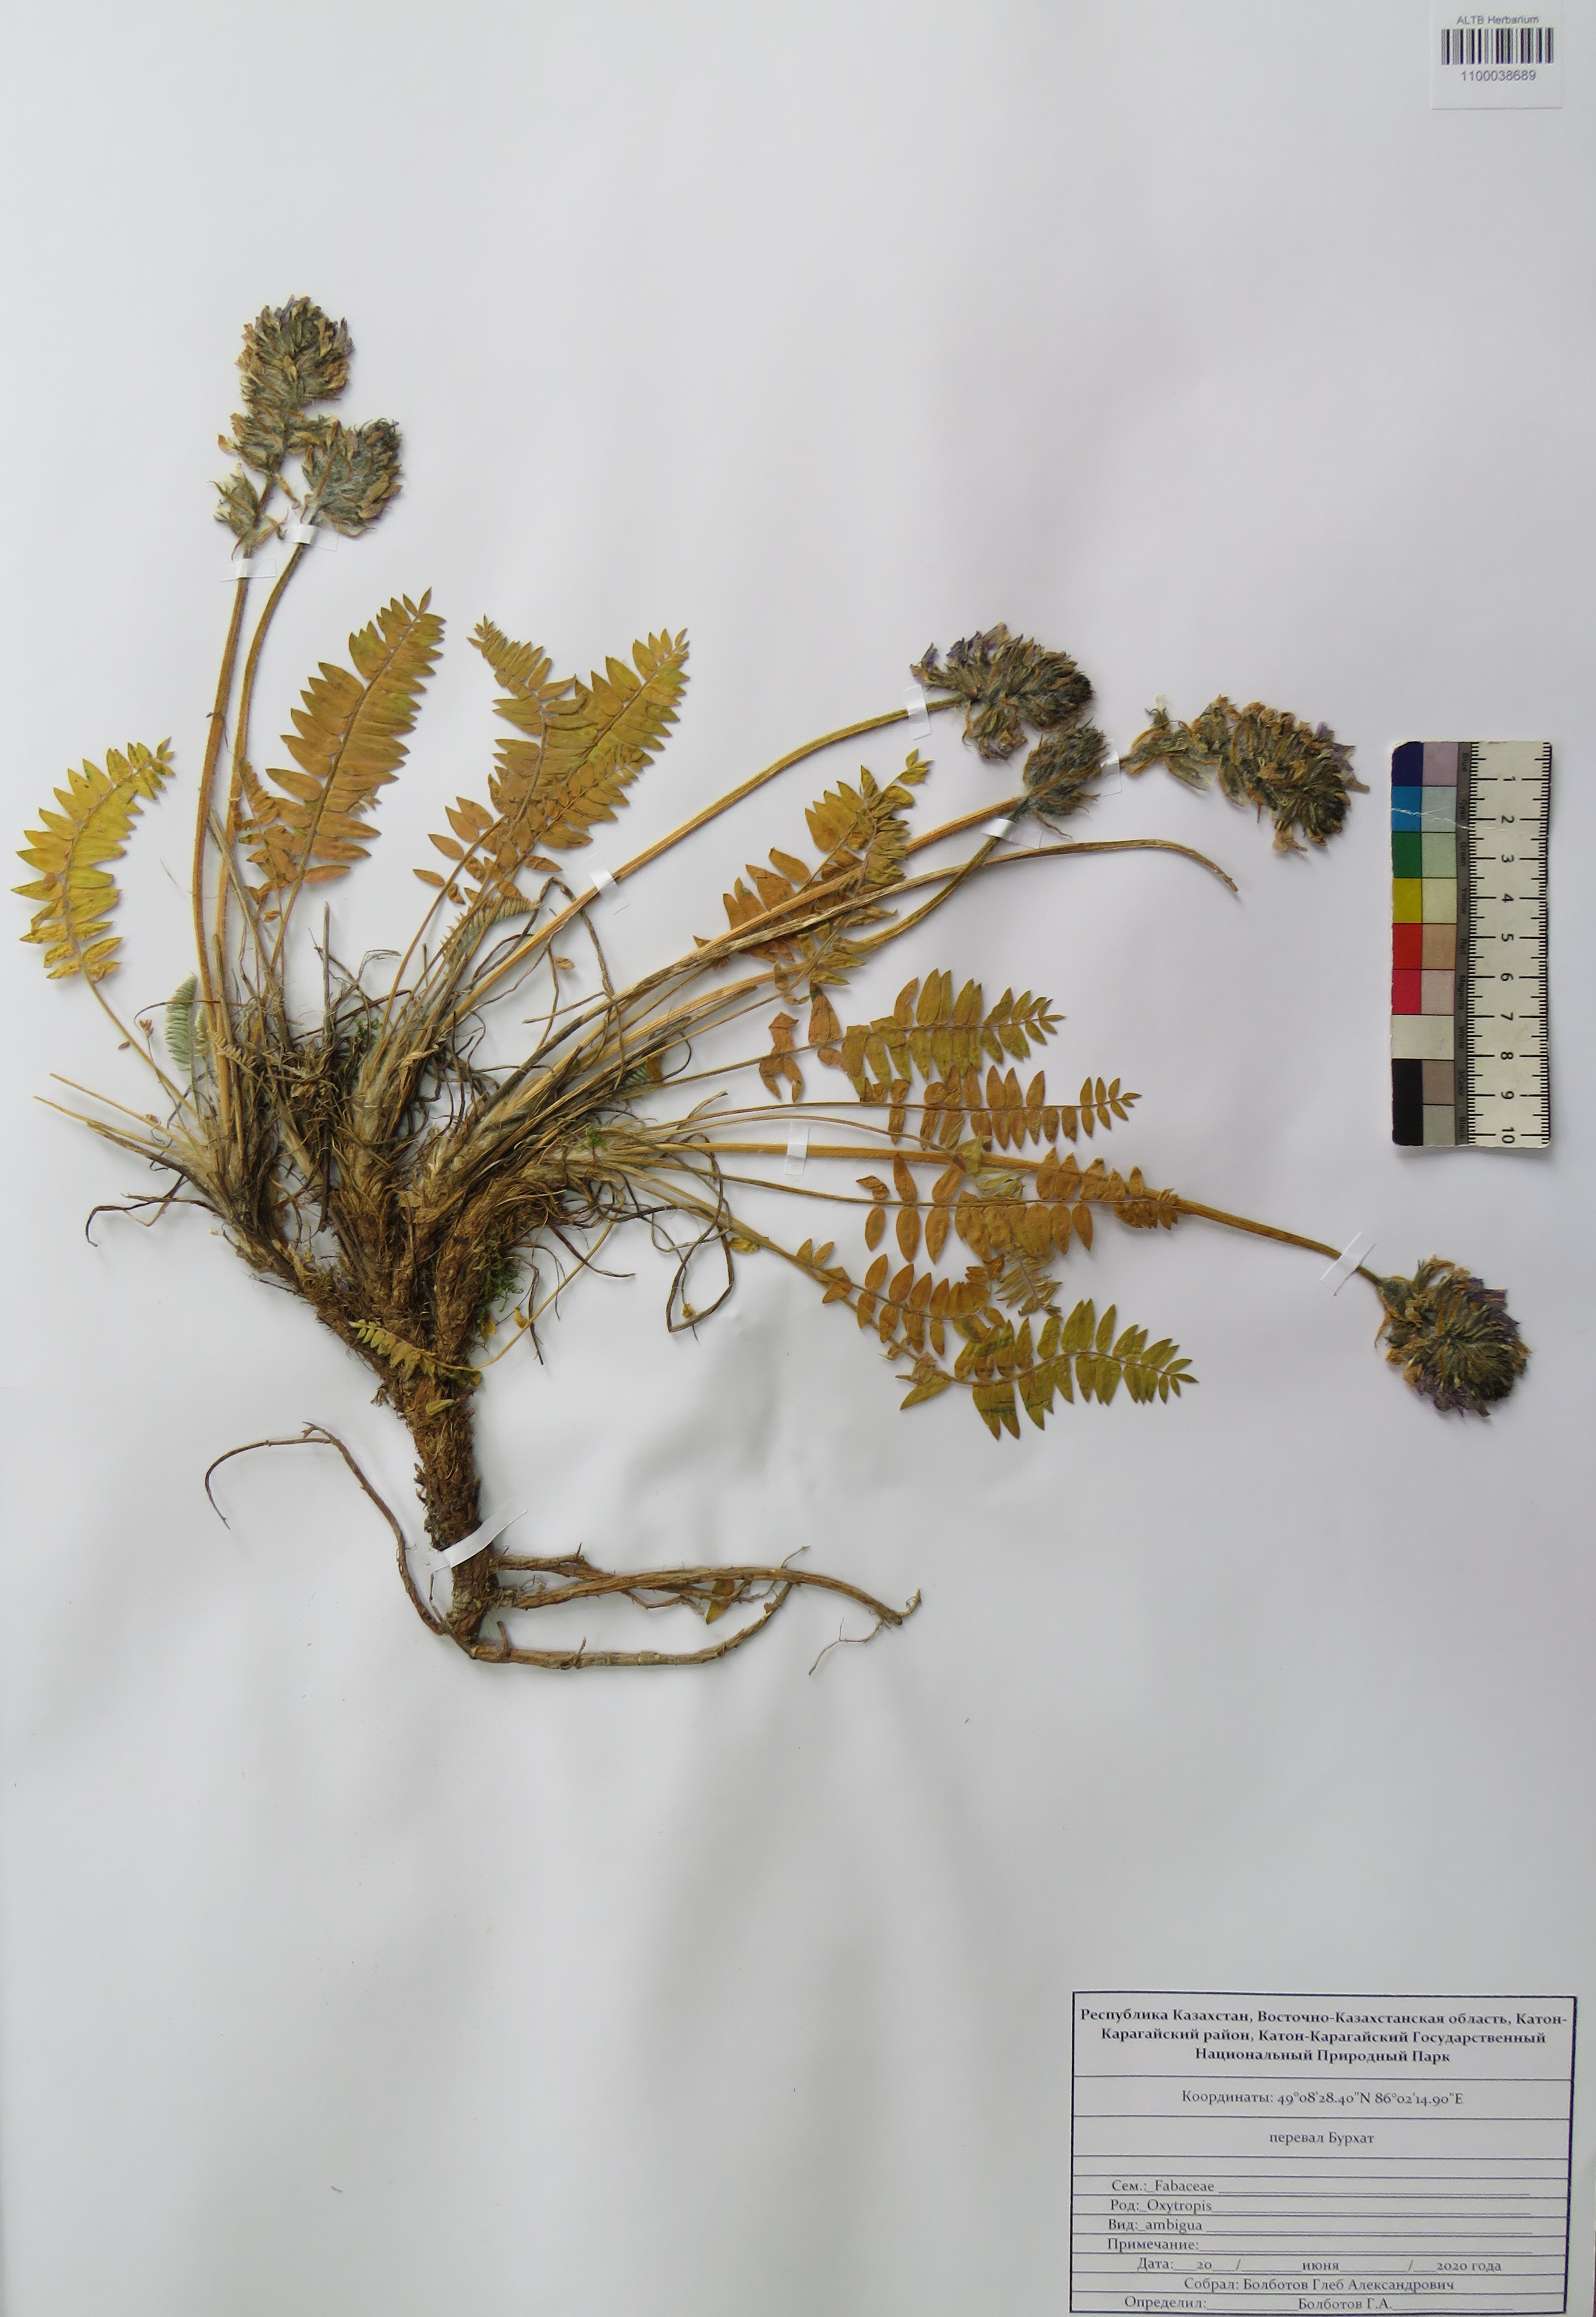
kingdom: Plantae
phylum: Tracheophyta
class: Magnoliopsida
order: Fabales
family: Fabaceae
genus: Oxytropis
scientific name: Oxytropis ambigua
